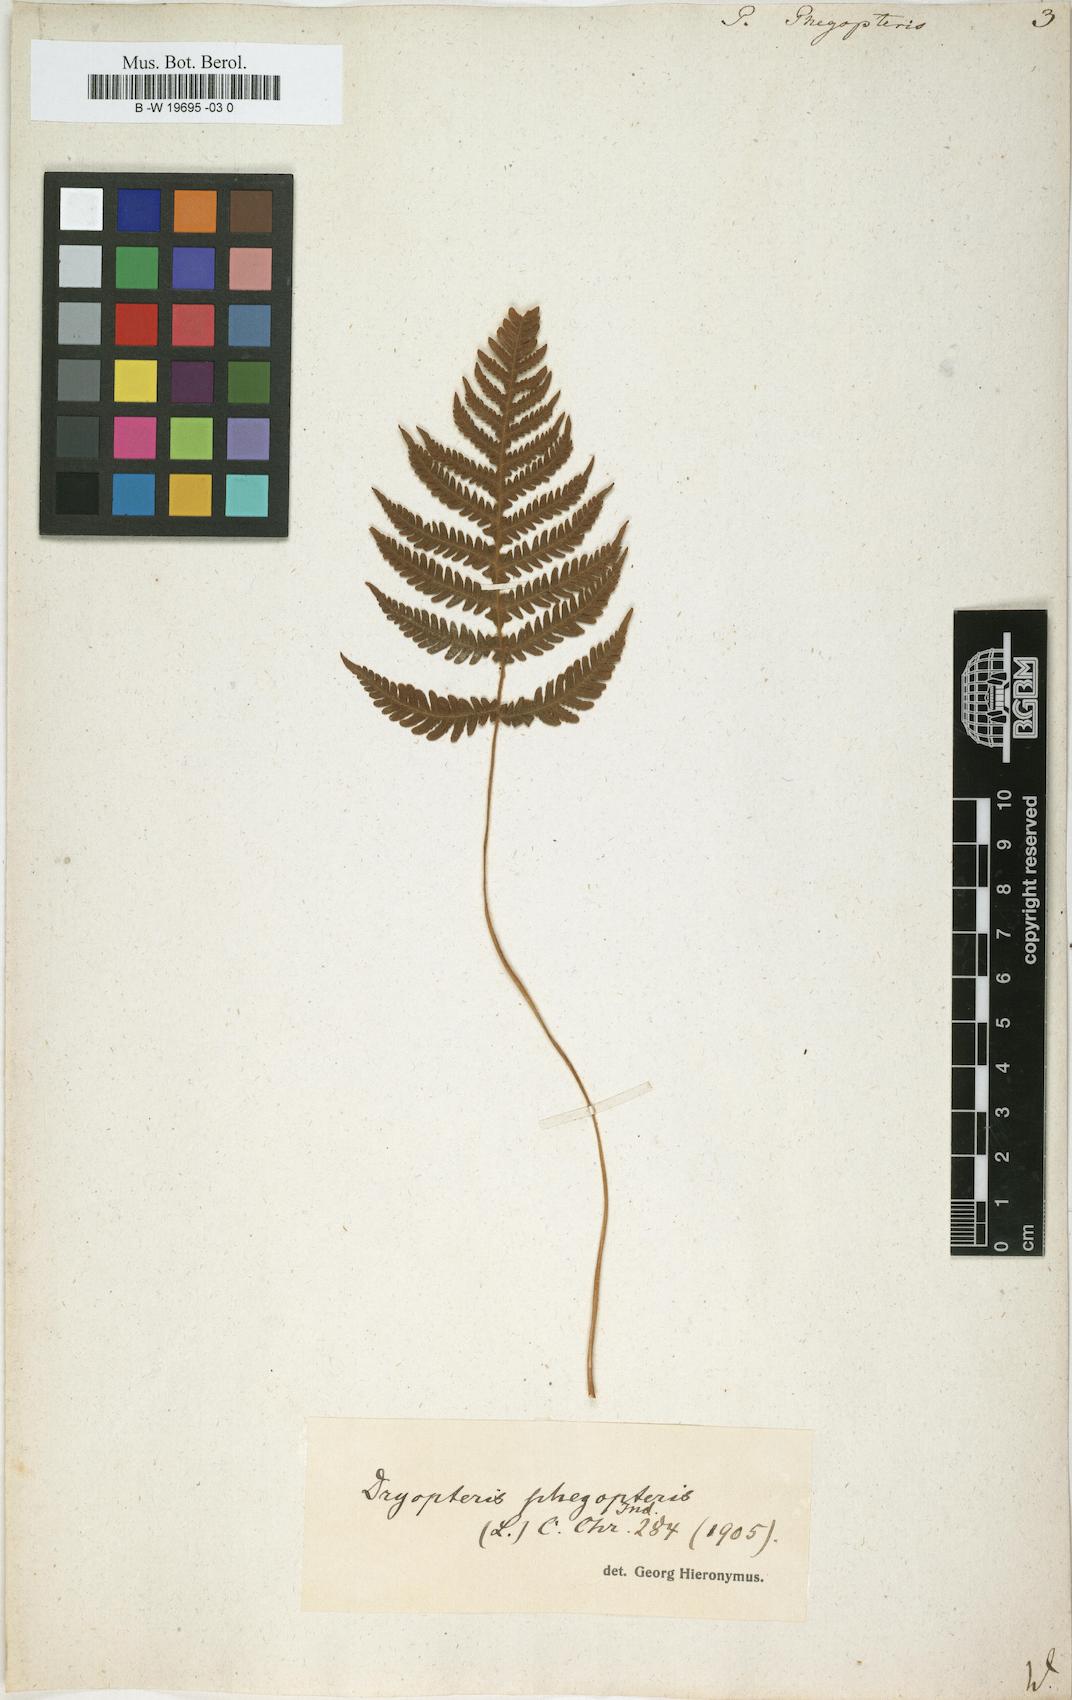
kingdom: Plantae
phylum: Tracheophyta
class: Polypodiopsida
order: Polypodiales
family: Thelypteridaceae
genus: Phegopteris
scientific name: Phegopteris connectilis
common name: Beech fern
